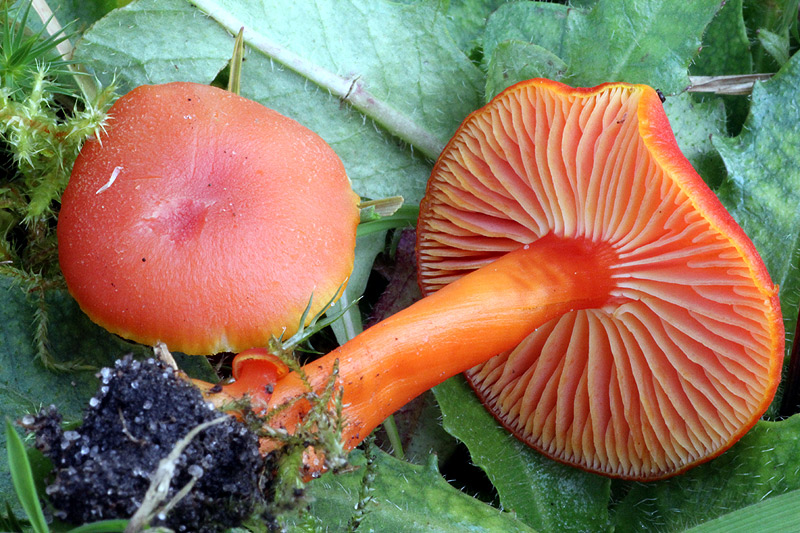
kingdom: Fungi
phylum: Basidiomycota
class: Agaricomycetes
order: Agaricales
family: Hygrophoraceae
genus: Hygrocybe
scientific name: Hygrocybe miniata
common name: mønje-vokshat
